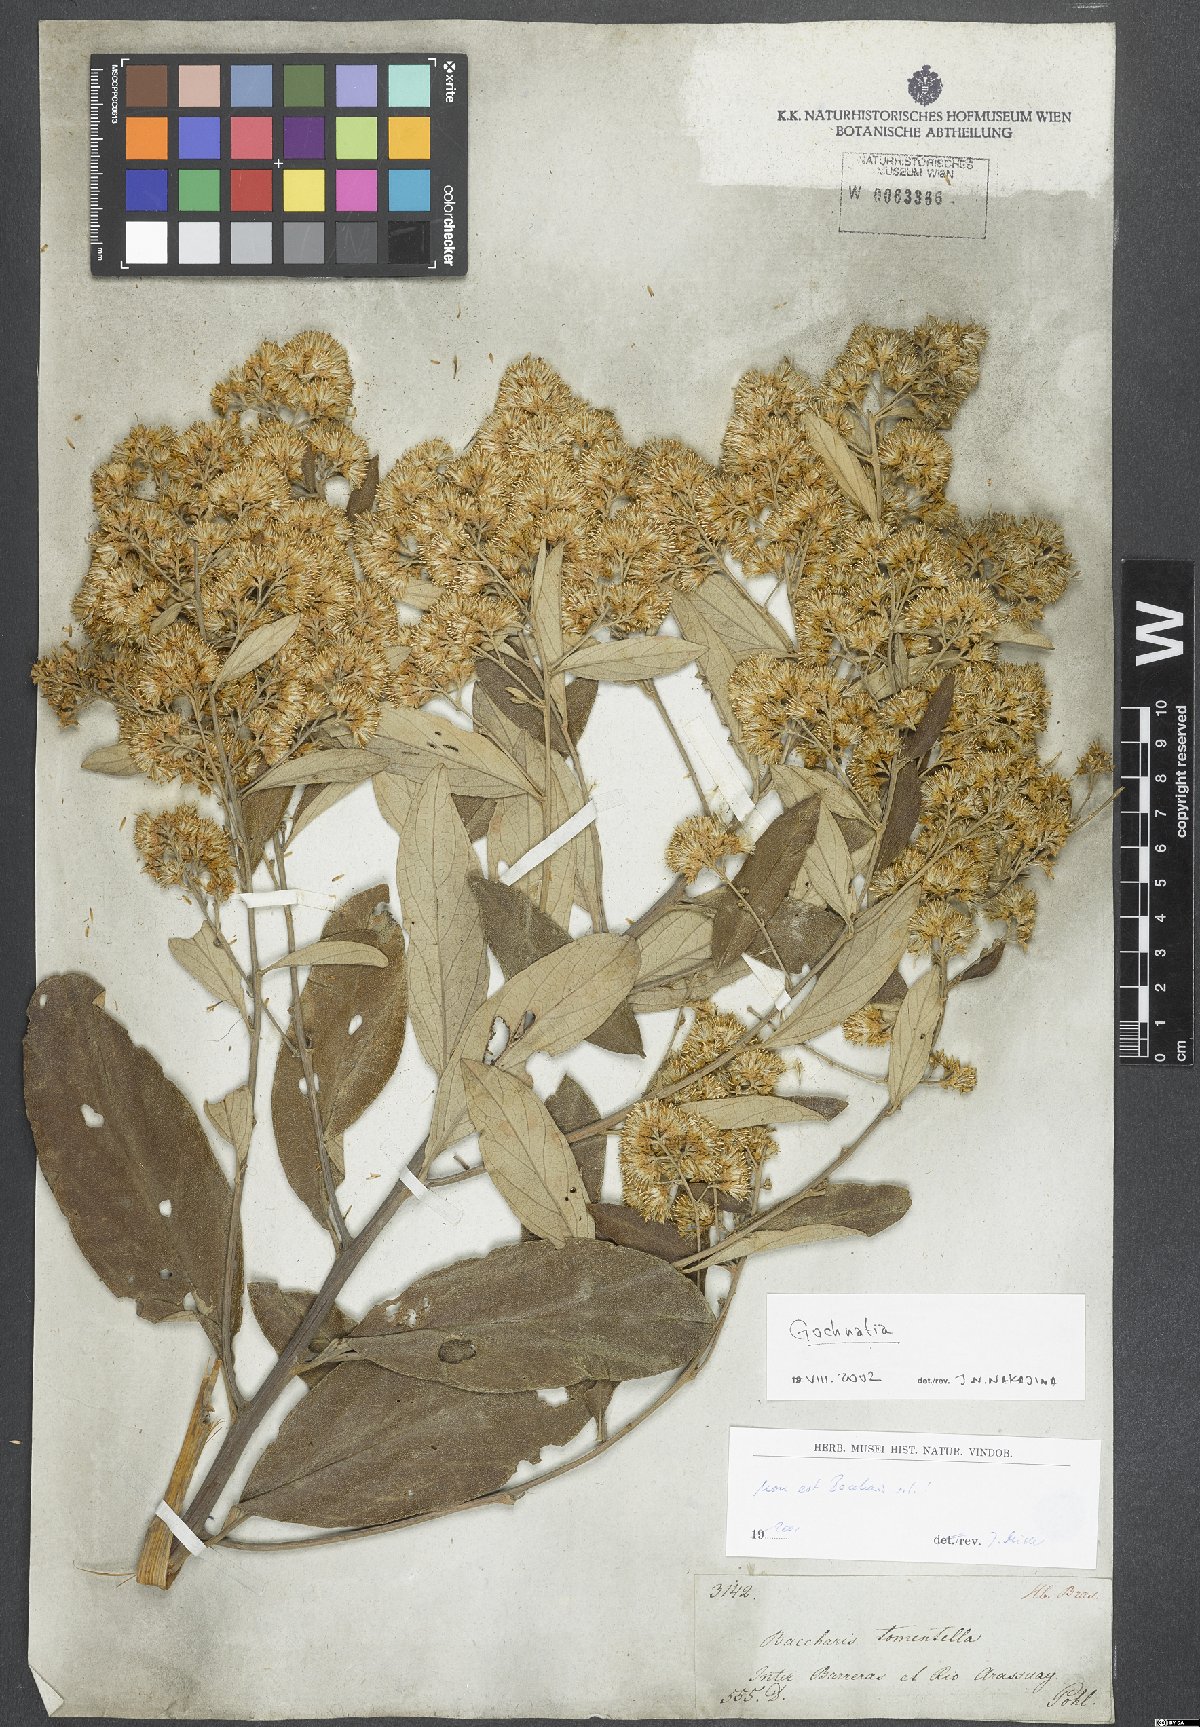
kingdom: Plantae
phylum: Tracheophyta
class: Magnoliopsida
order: Asterales
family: Asteraceae
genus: Gochnatia
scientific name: Gochnatia
